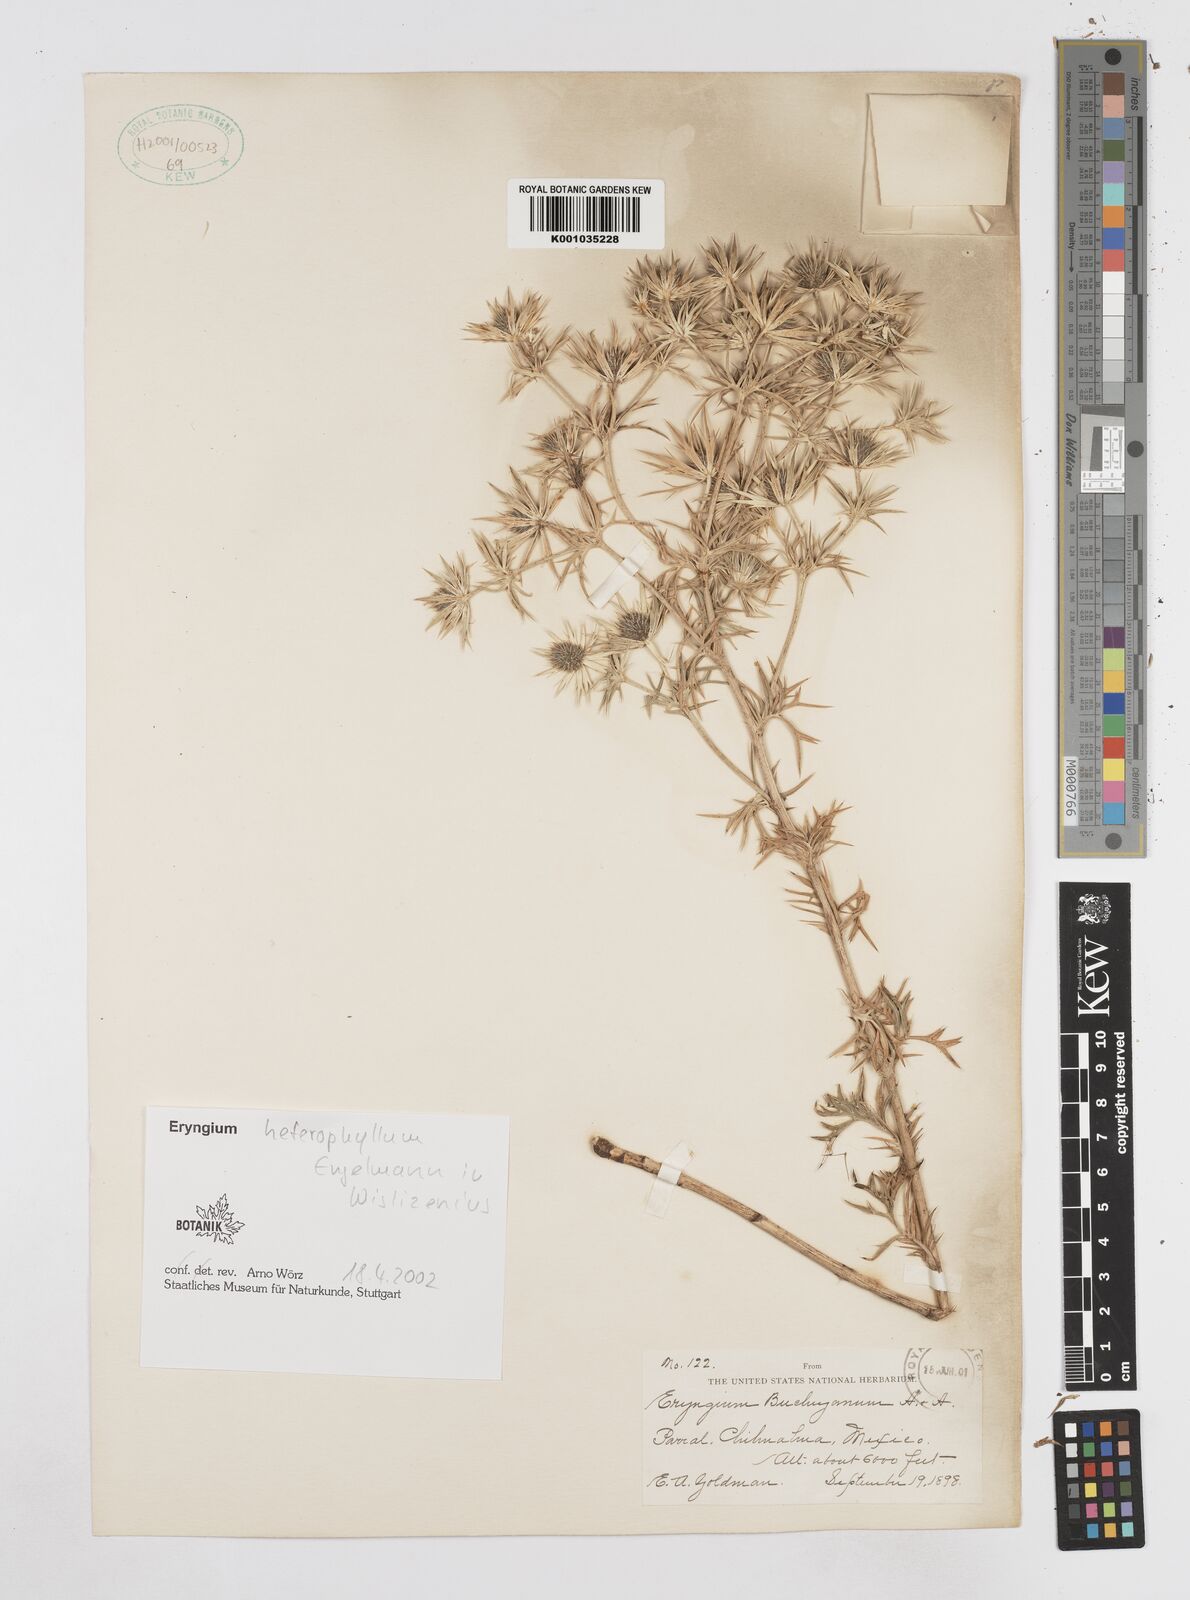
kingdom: Plantae
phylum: Tracheophyta
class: Magnoliopsida
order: Apiales
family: Apiaceae
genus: Eryngium
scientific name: Eryngium heterophyllum
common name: Mexican thistle
